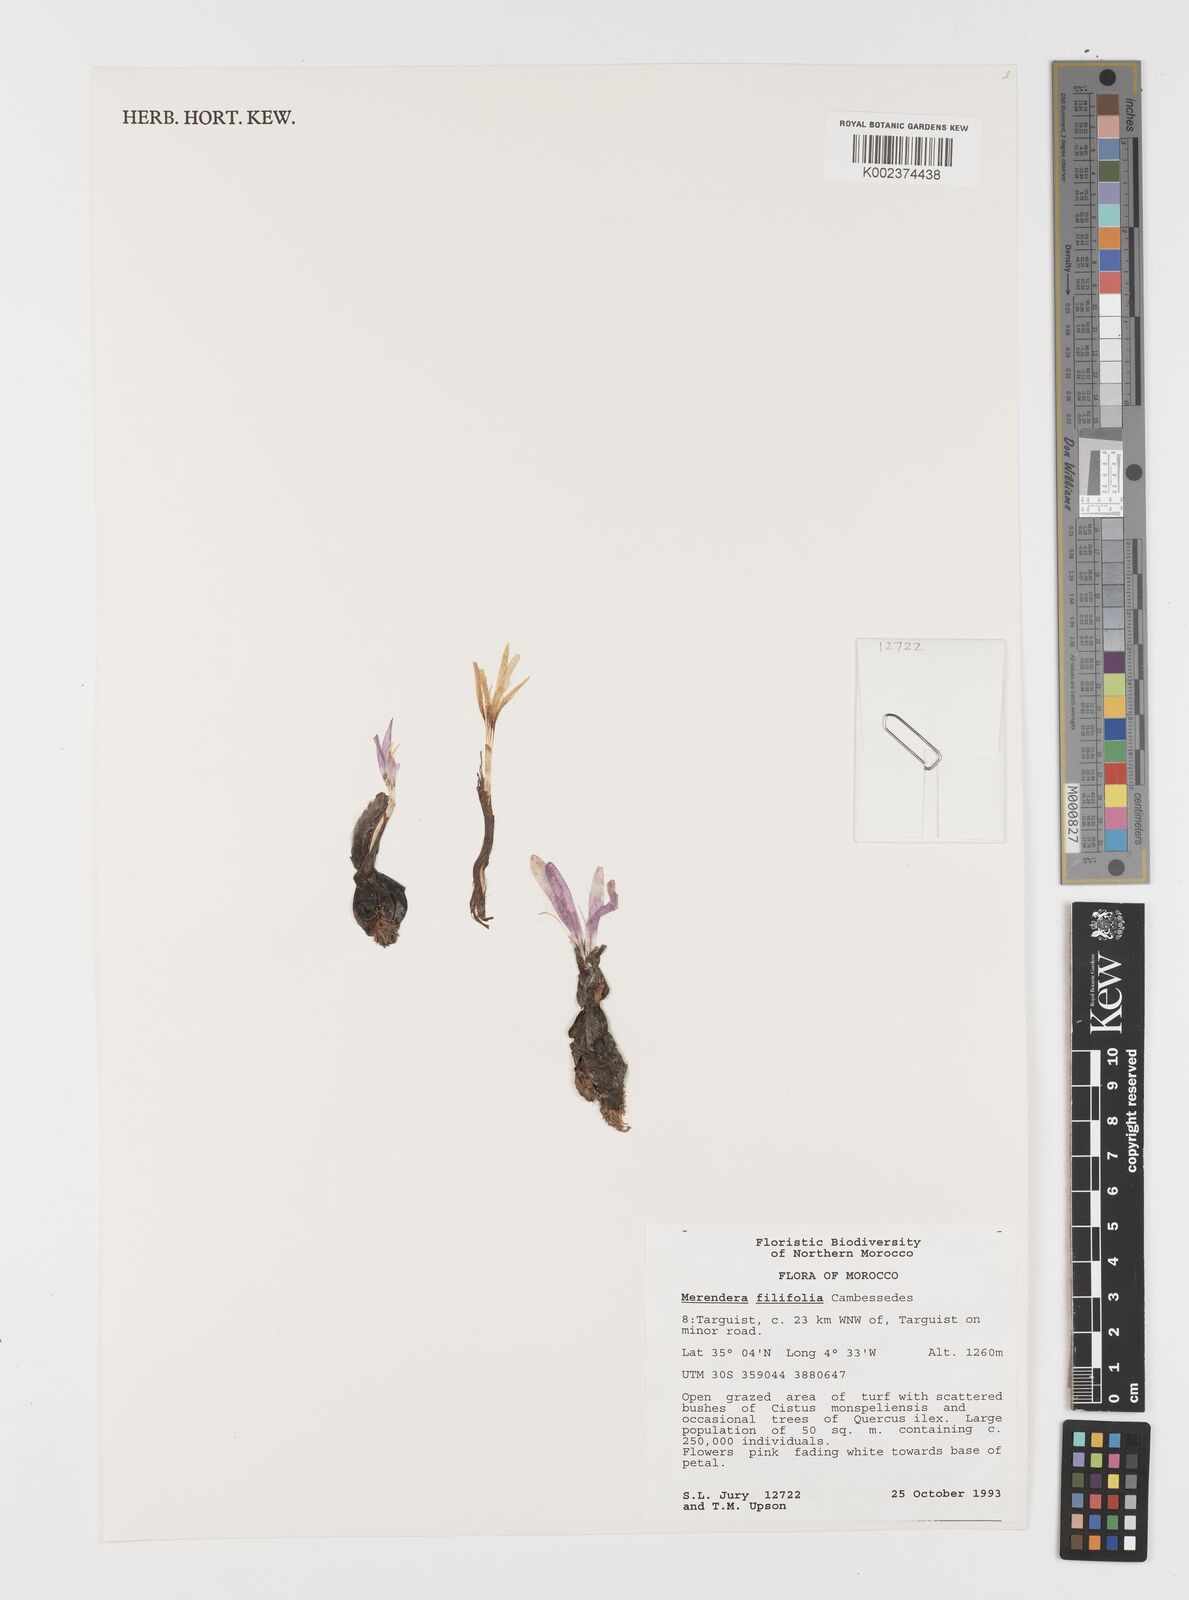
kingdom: Plantae
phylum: Tracheophyta
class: Liliopsida
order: Liliales
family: Colchicaceae
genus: Colchicum
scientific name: Colchicum filifolium
